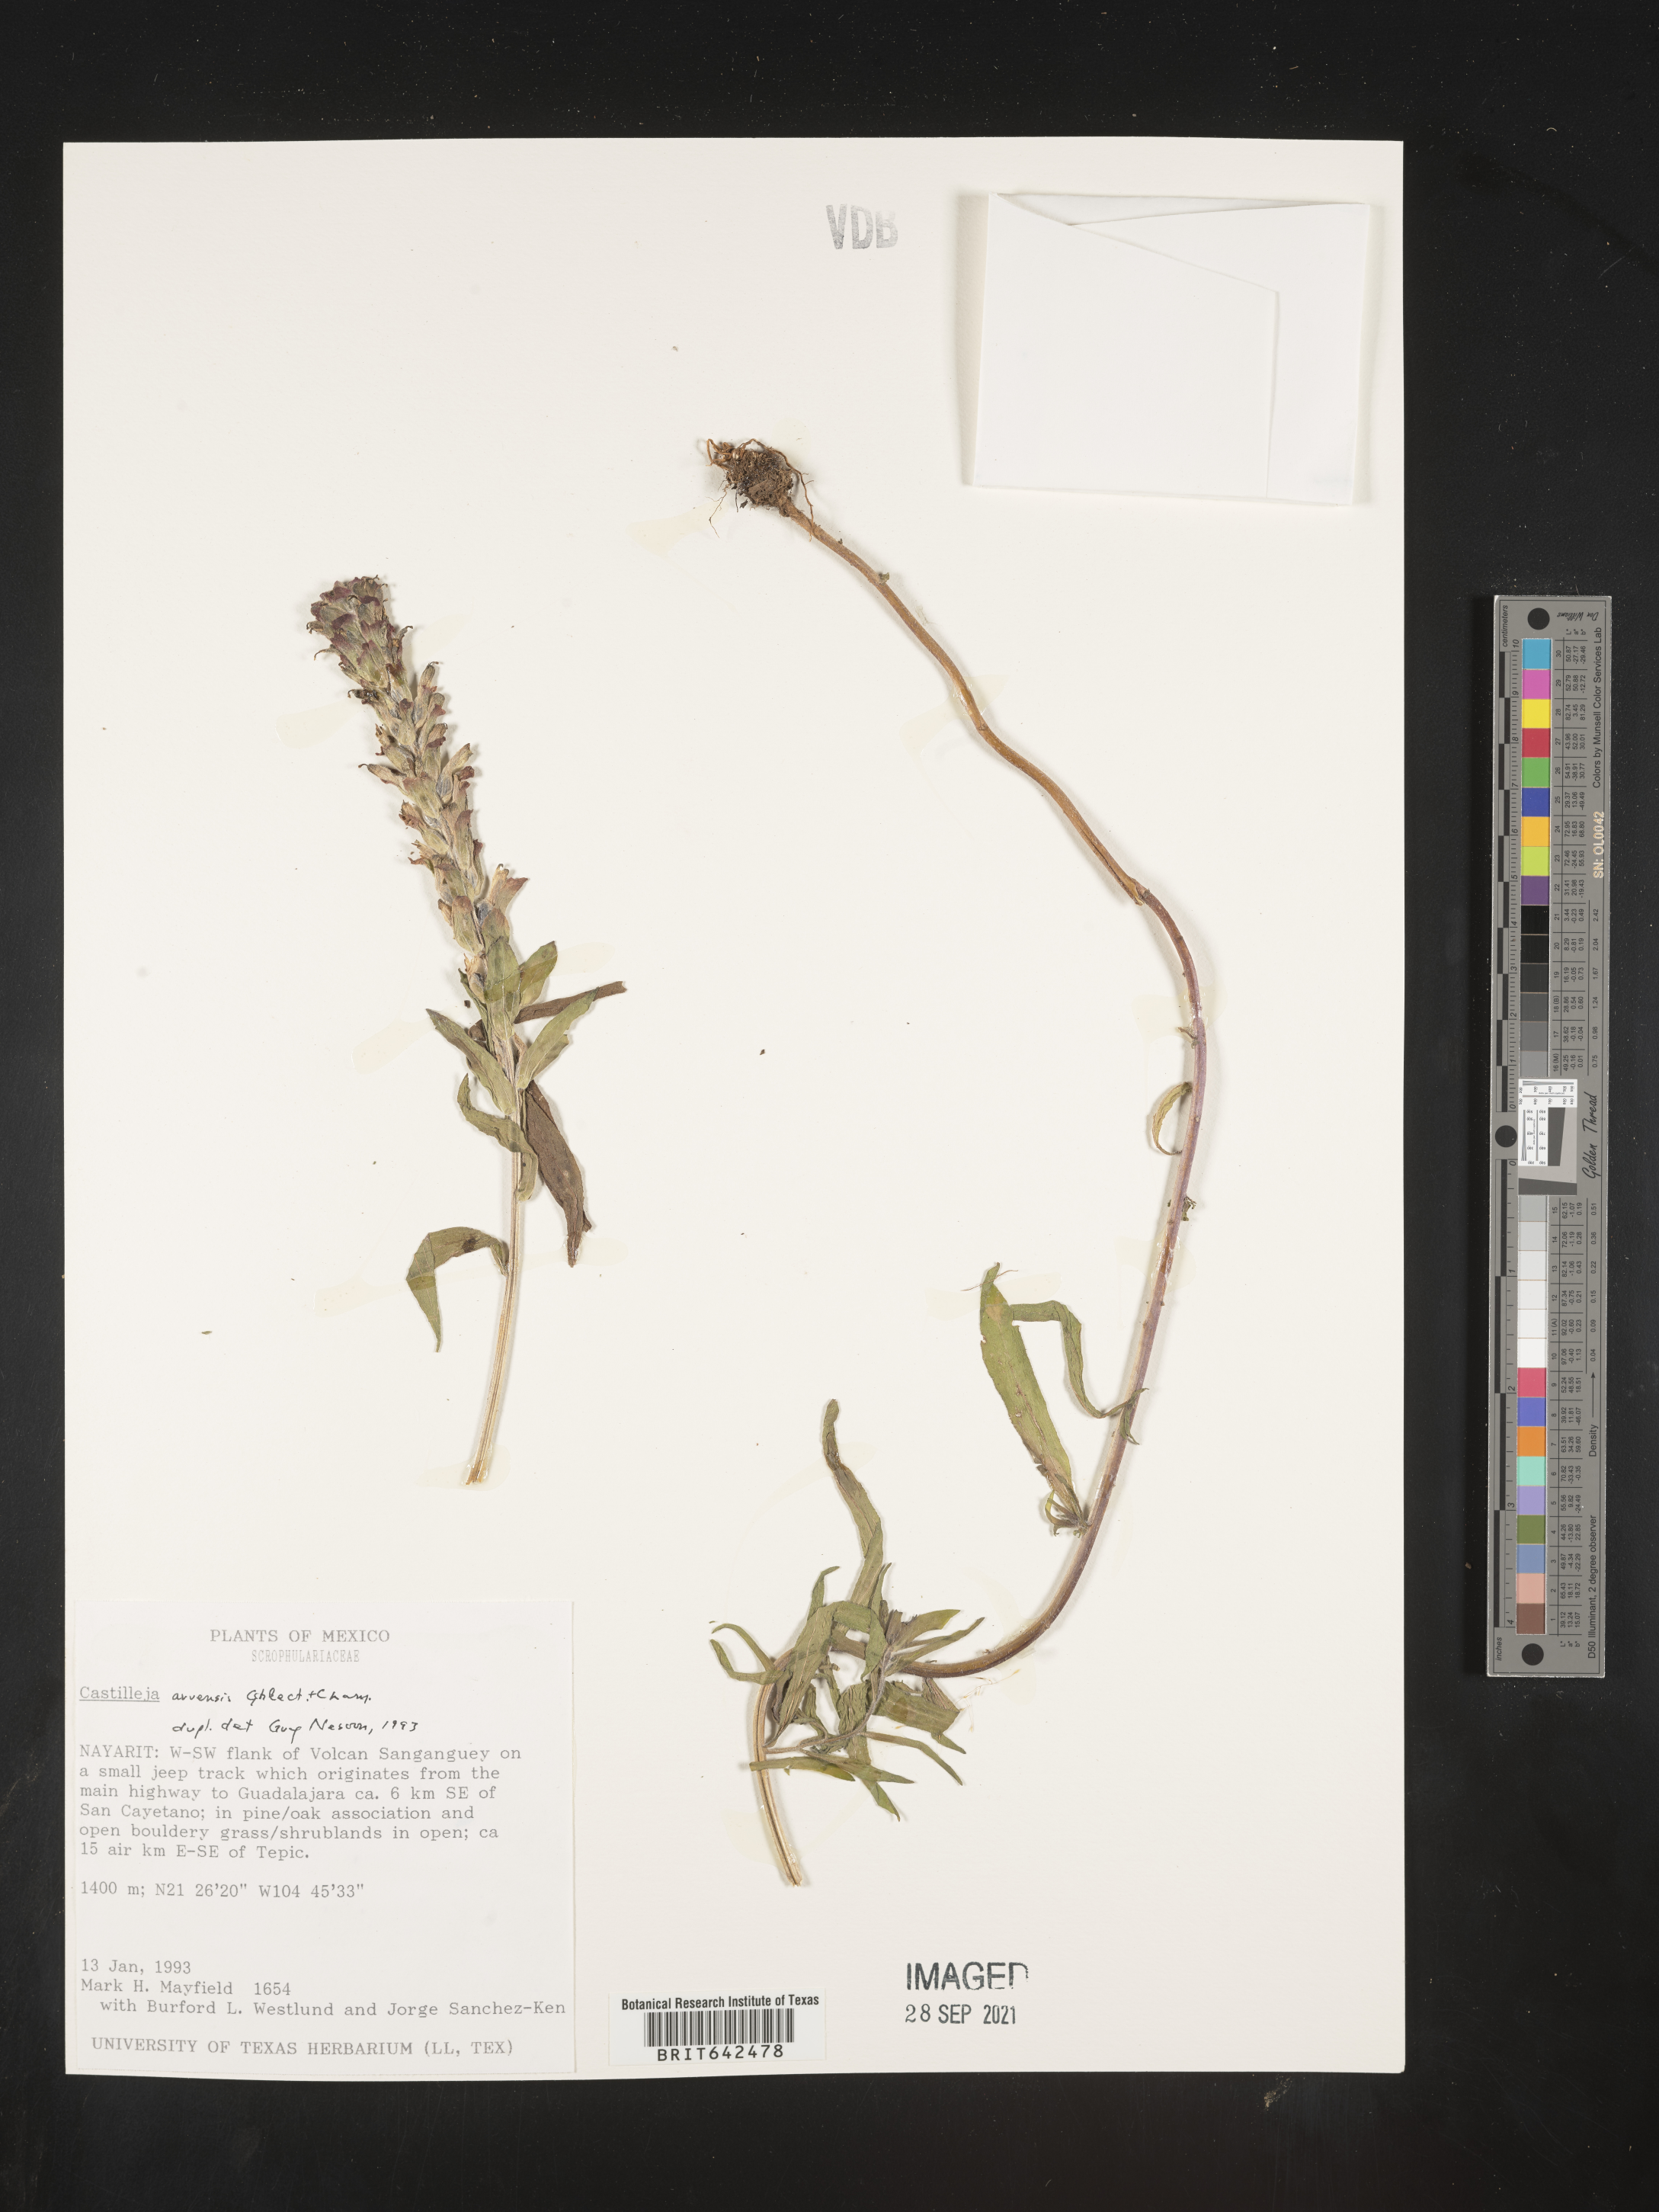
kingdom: Plantae
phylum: Tracheophyta
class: Magnoliopsida
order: Lamiales
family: Orobanchaceae
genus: Castilleja
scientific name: Castilleja
